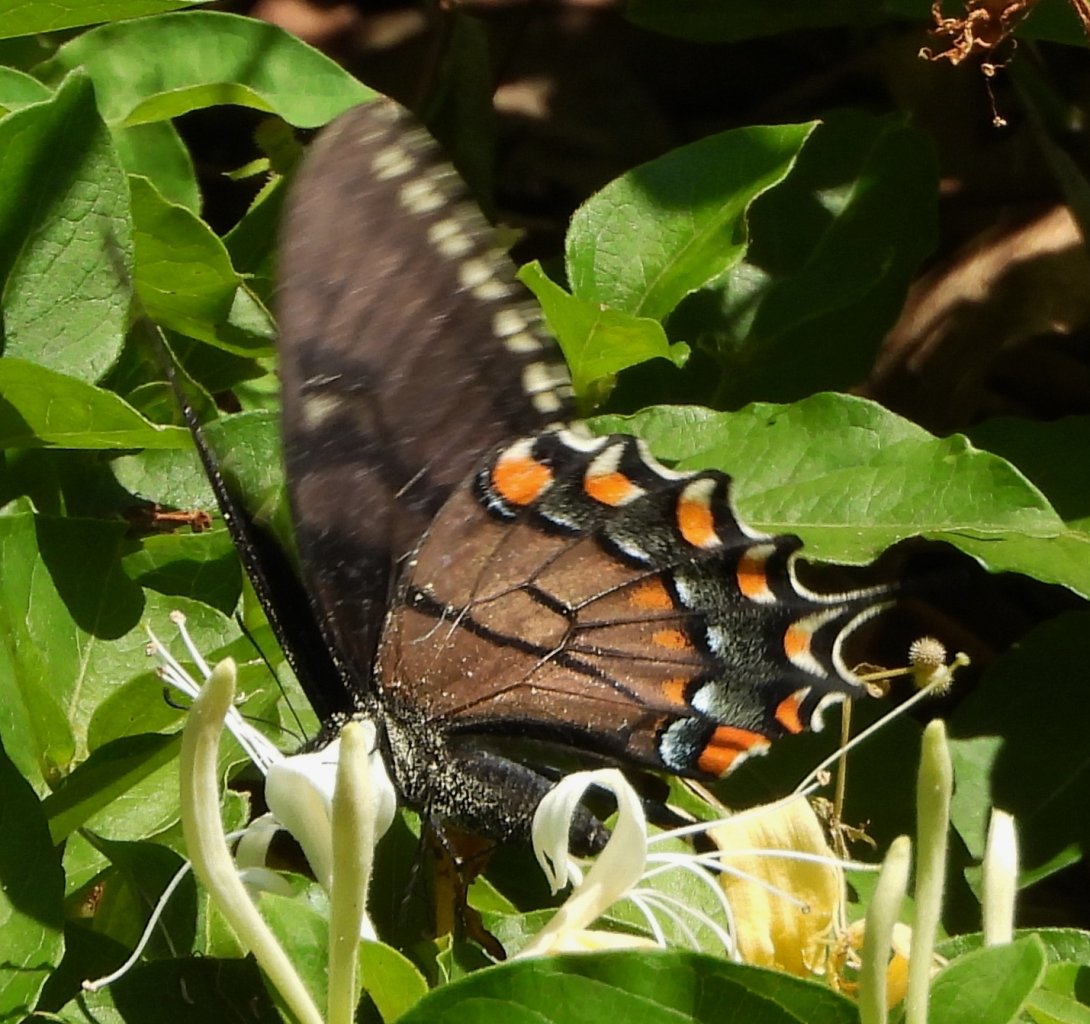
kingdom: Animalia
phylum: Arthropoda
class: Insecta
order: Lepidoptera
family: Papilionidae
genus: Pterourus
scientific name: Pterourus glaucus
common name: Eastern Tiger Swallowtail
